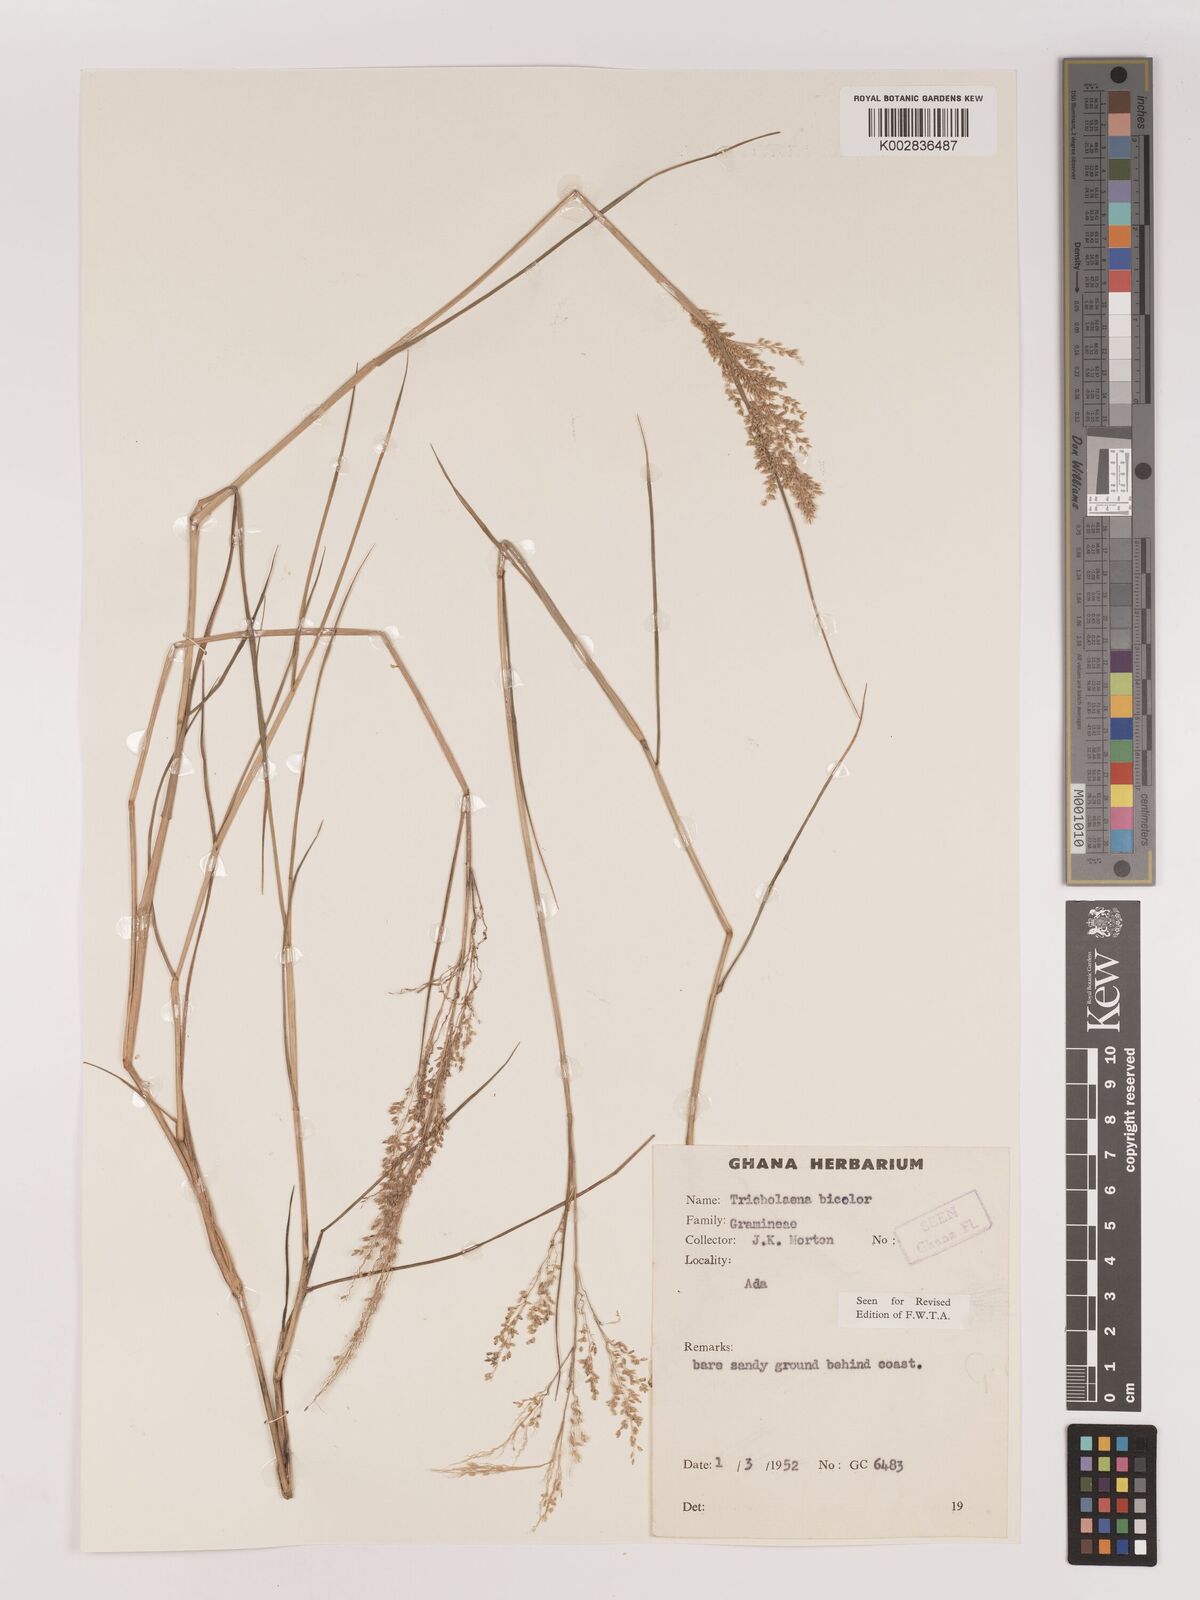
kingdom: Plantae
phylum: Tracheophyta
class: Liliopsida
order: Poales
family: Poaceae
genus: Tricholaena
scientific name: Tricholaena monachne
